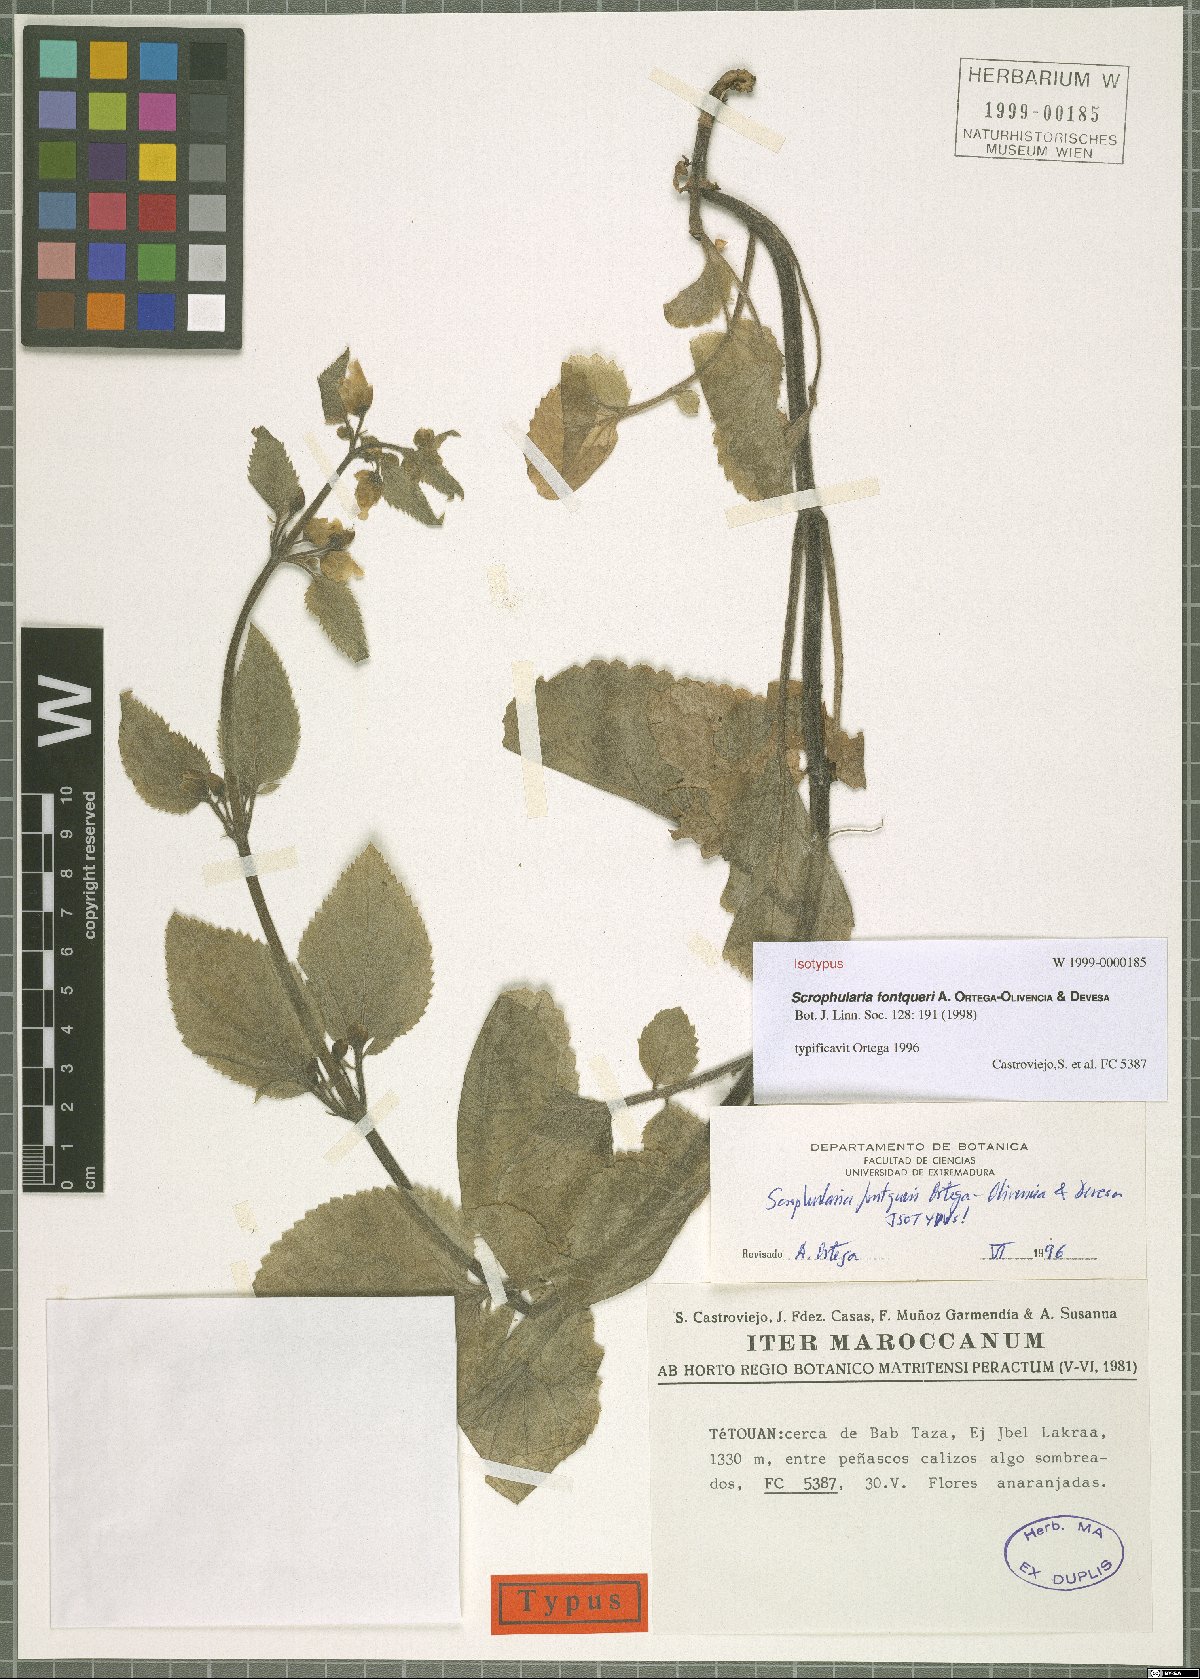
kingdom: Plantae
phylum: Tracheophyta
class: Magnoliopsida
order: Lamiales
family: Scrophulariaceae
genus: Scrophularia
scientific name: Scrophularia fontqueri
